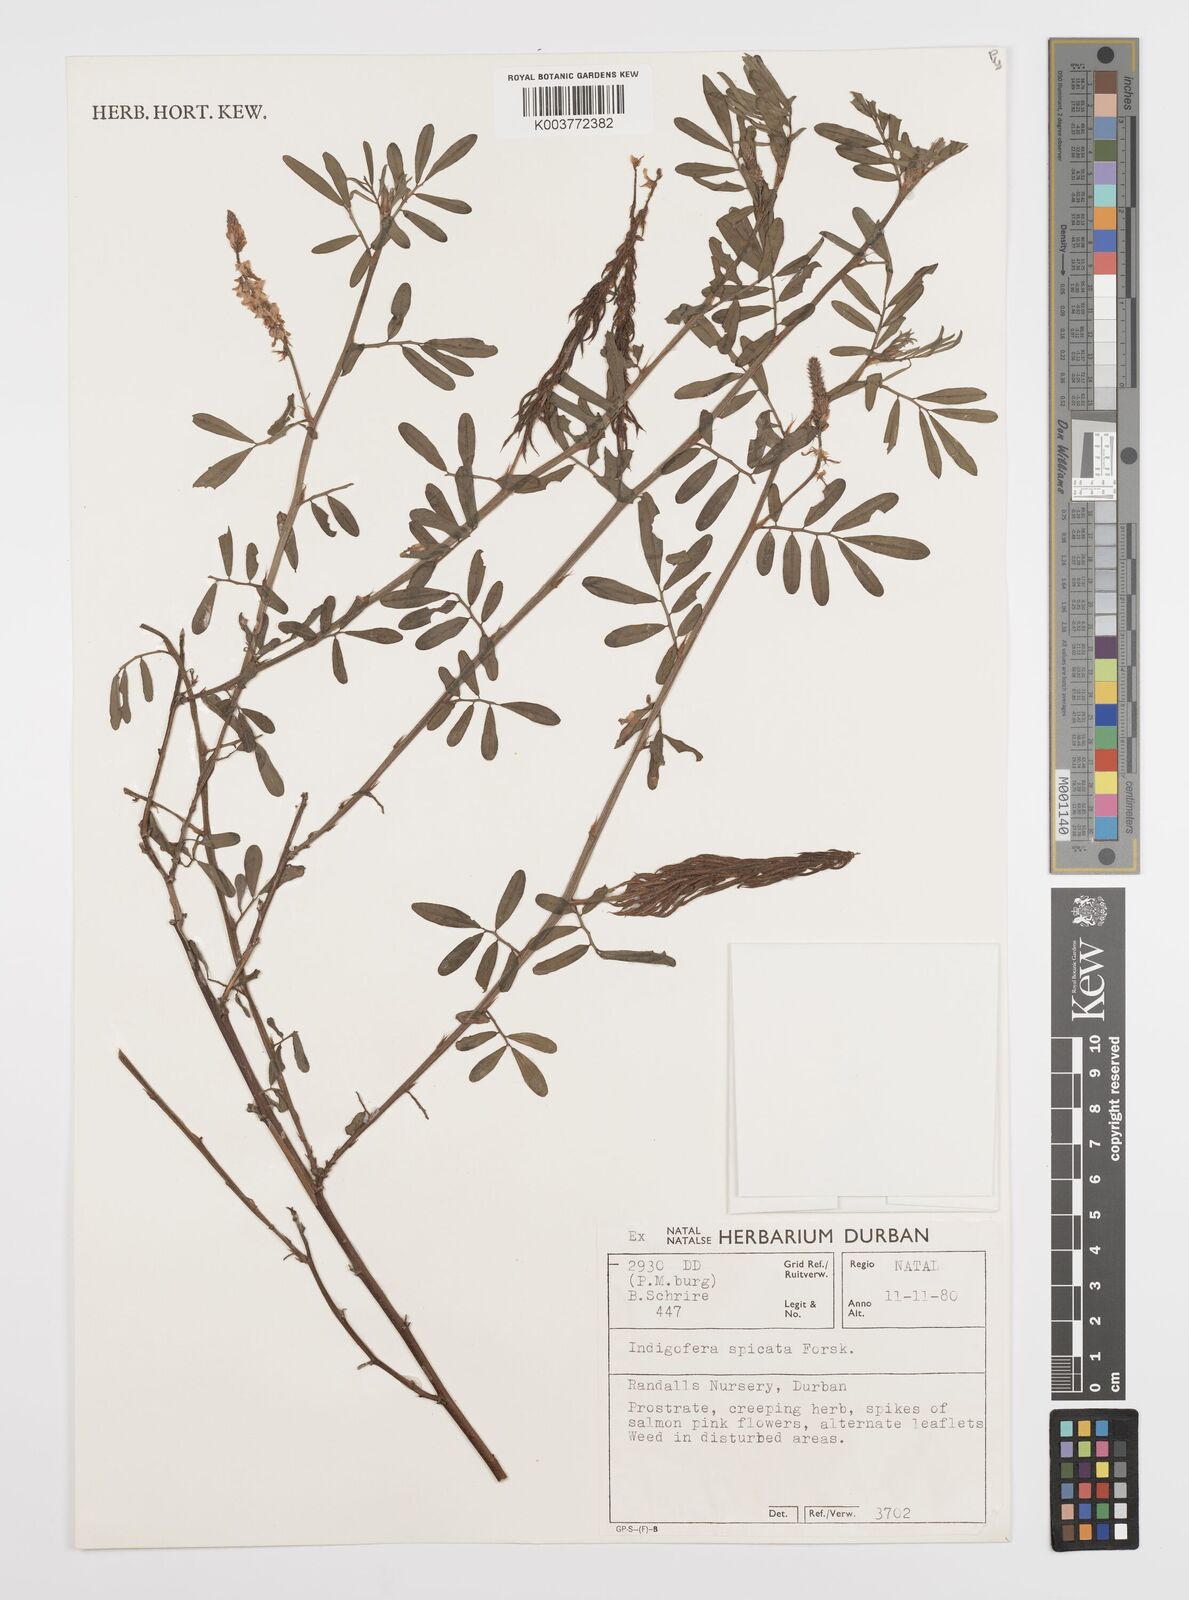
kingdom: Plantae
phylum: Tracheophyta
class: Magnoliopsida
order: Fabales
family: Fabaceae
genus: Indigofera
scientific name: Indigofera hendecaphylla
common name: Trailing indigo
